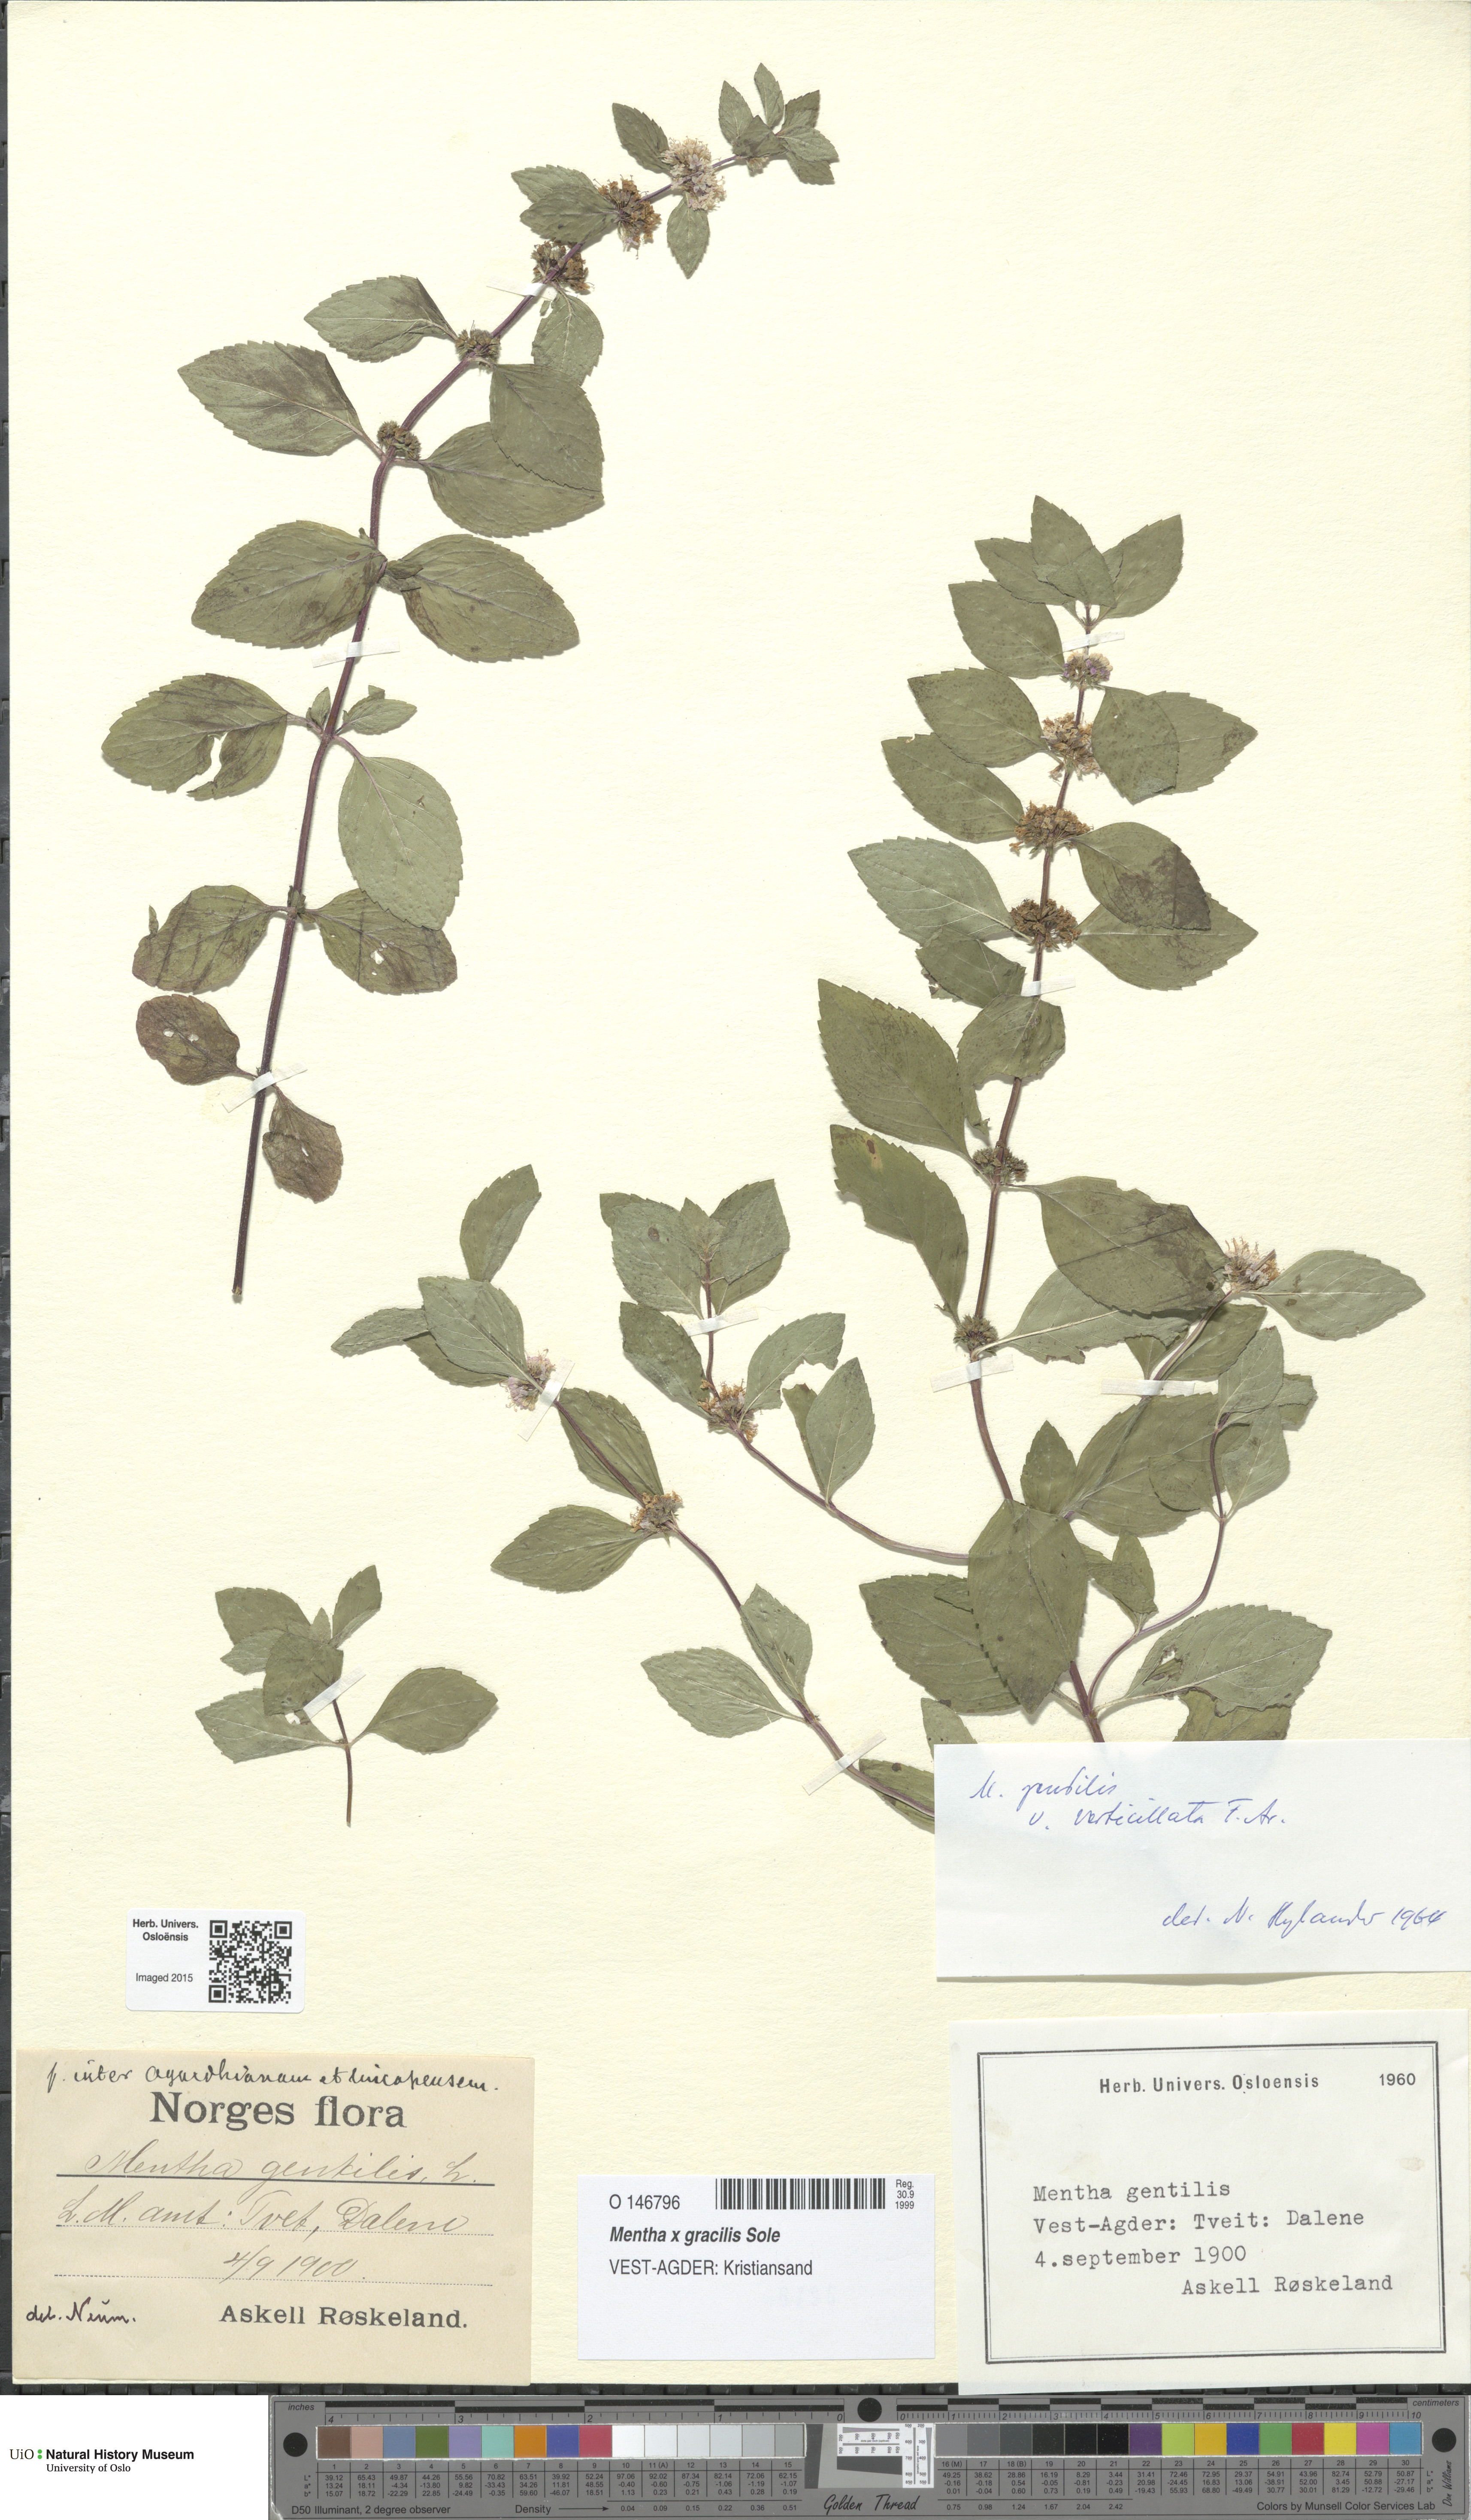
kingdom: Plantae
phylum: Tracheophyta
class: Magnoliopsida
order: Lamiales
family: Lamiaceae
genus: Mentha
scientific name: Mentha arvensis
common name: Corn mint
